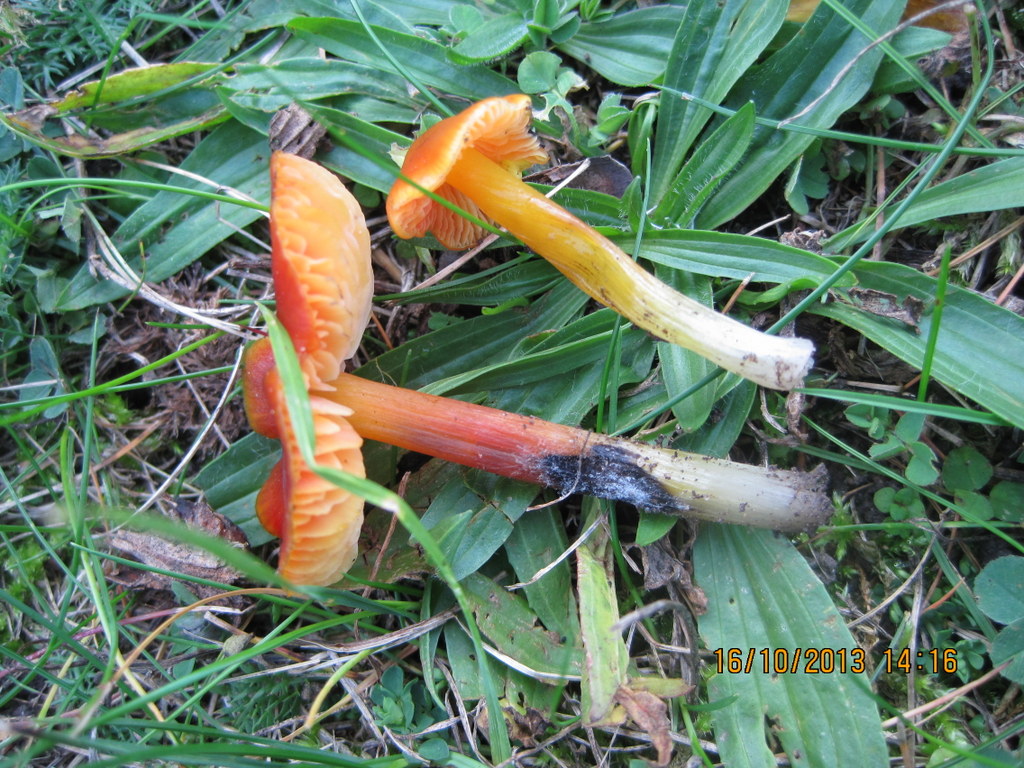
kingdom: Fungi
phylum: Basidiomycota
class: Agaricomycetes
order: Agaricales
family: Hygrophoraceae
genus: Hygrocybe
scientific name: Hygrocybe conica
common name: kegle-vokshat
